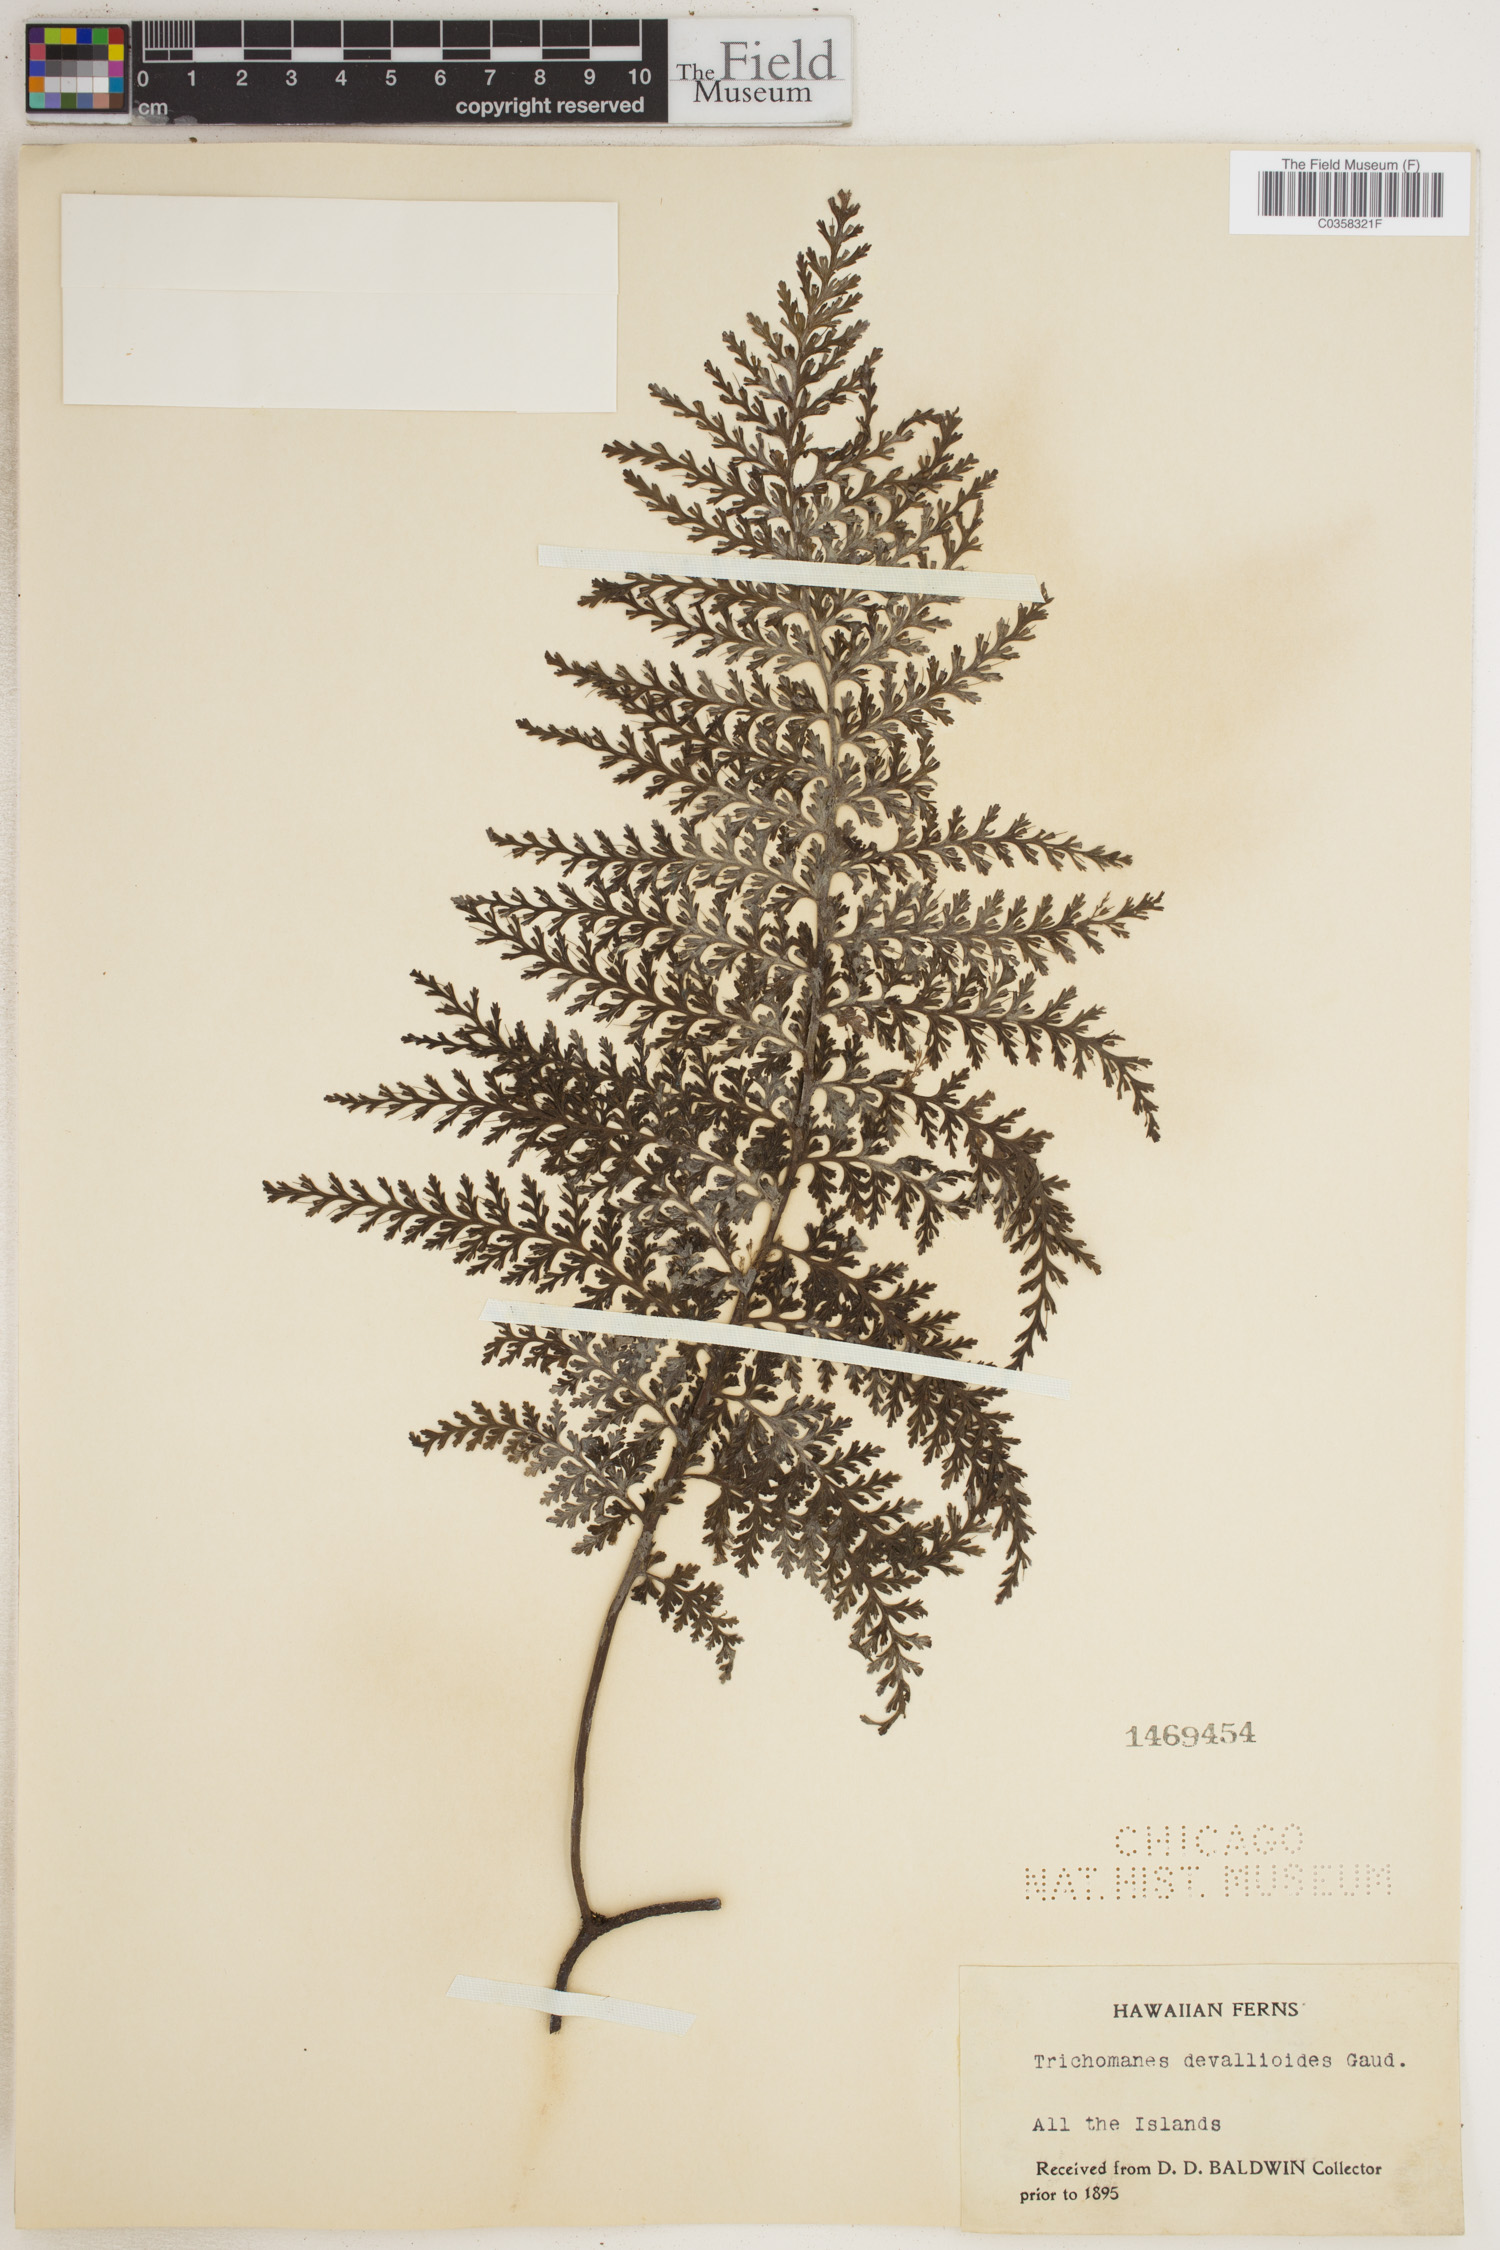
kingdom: Plantae
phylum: Tracheophyta
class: Polypodiopsida
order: Hymenophyllales
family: Hymenophyllaceae
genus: Vandenboschia
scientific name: Vandenboschia davallioides
